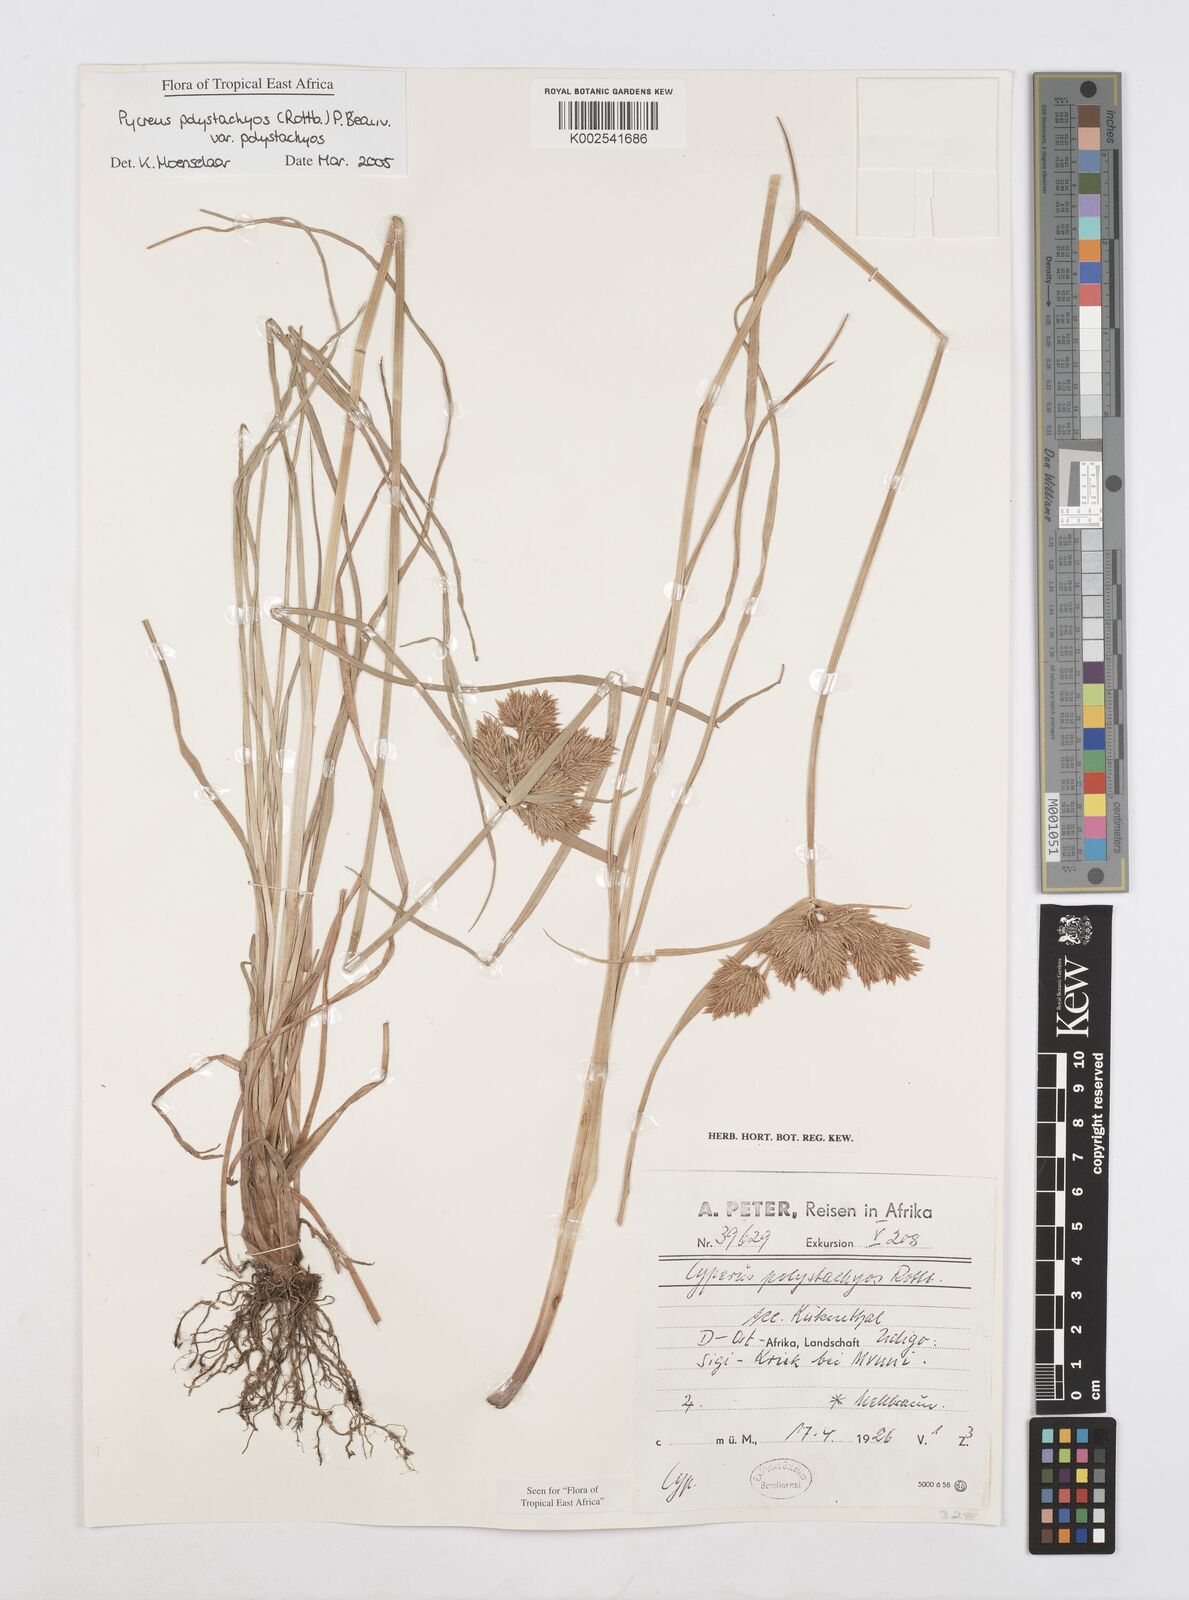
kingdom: Plantae
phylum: Tracheophyta
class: Liliopsida
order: Poales
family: Cyperaceae
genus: Cyperus
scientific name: Cyperus polystachyos
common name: Bunchy flat sedge
